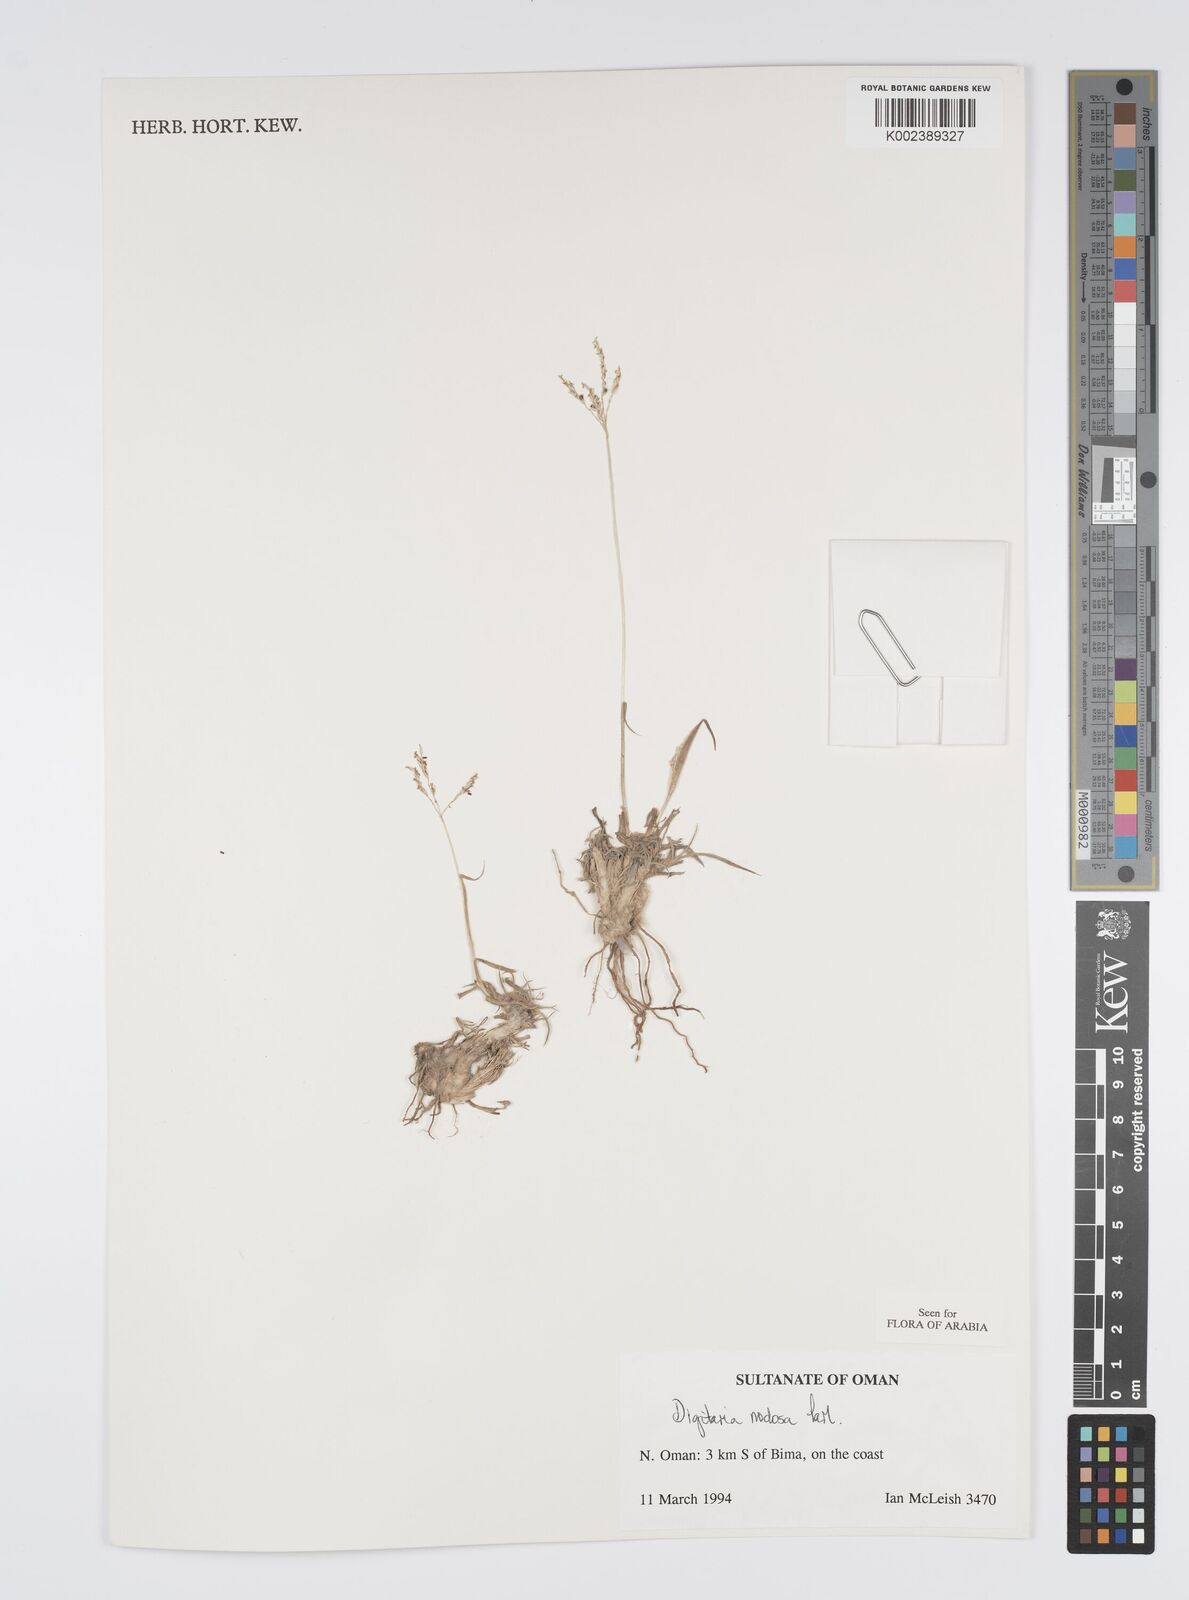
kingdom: Plantae
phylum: Tracheophyta
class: Liliopsida
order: Poales
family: Poaceae
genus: Digitaria
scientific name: Digitaria nodosa
